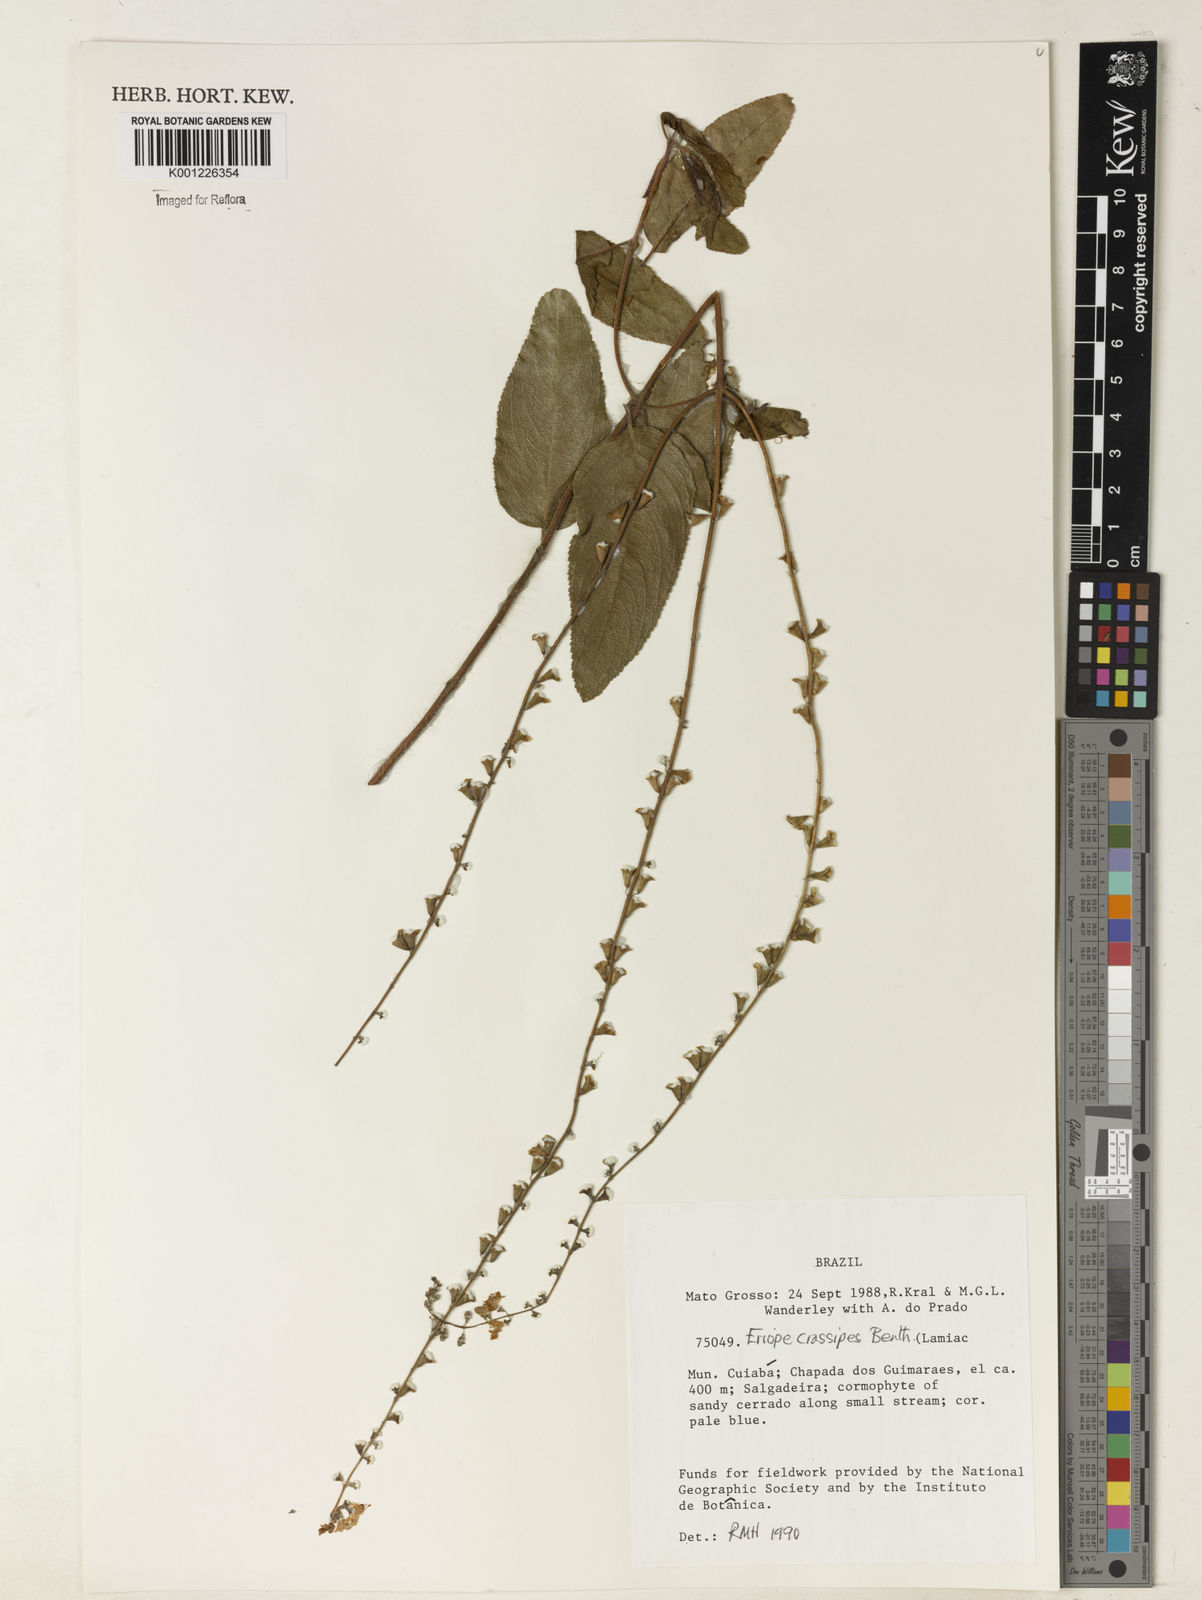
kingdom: Plantae
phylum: Tracheophyta
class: Magnoliopsida
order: Lamiales
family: Lamiaceae
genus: Eriope
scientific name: Eriope crassipes
